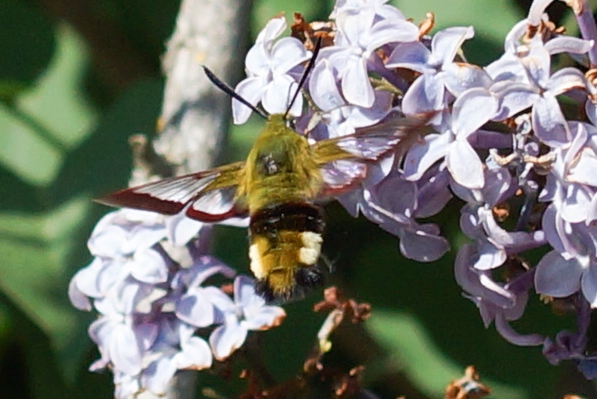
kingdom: Animalia
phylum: Arthropoda
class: Insecta
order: Lepidoptera
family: Sphingidae
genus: Hemaris
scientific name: Hemaris fuciformis
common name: Bredrandet humlebisværmer
